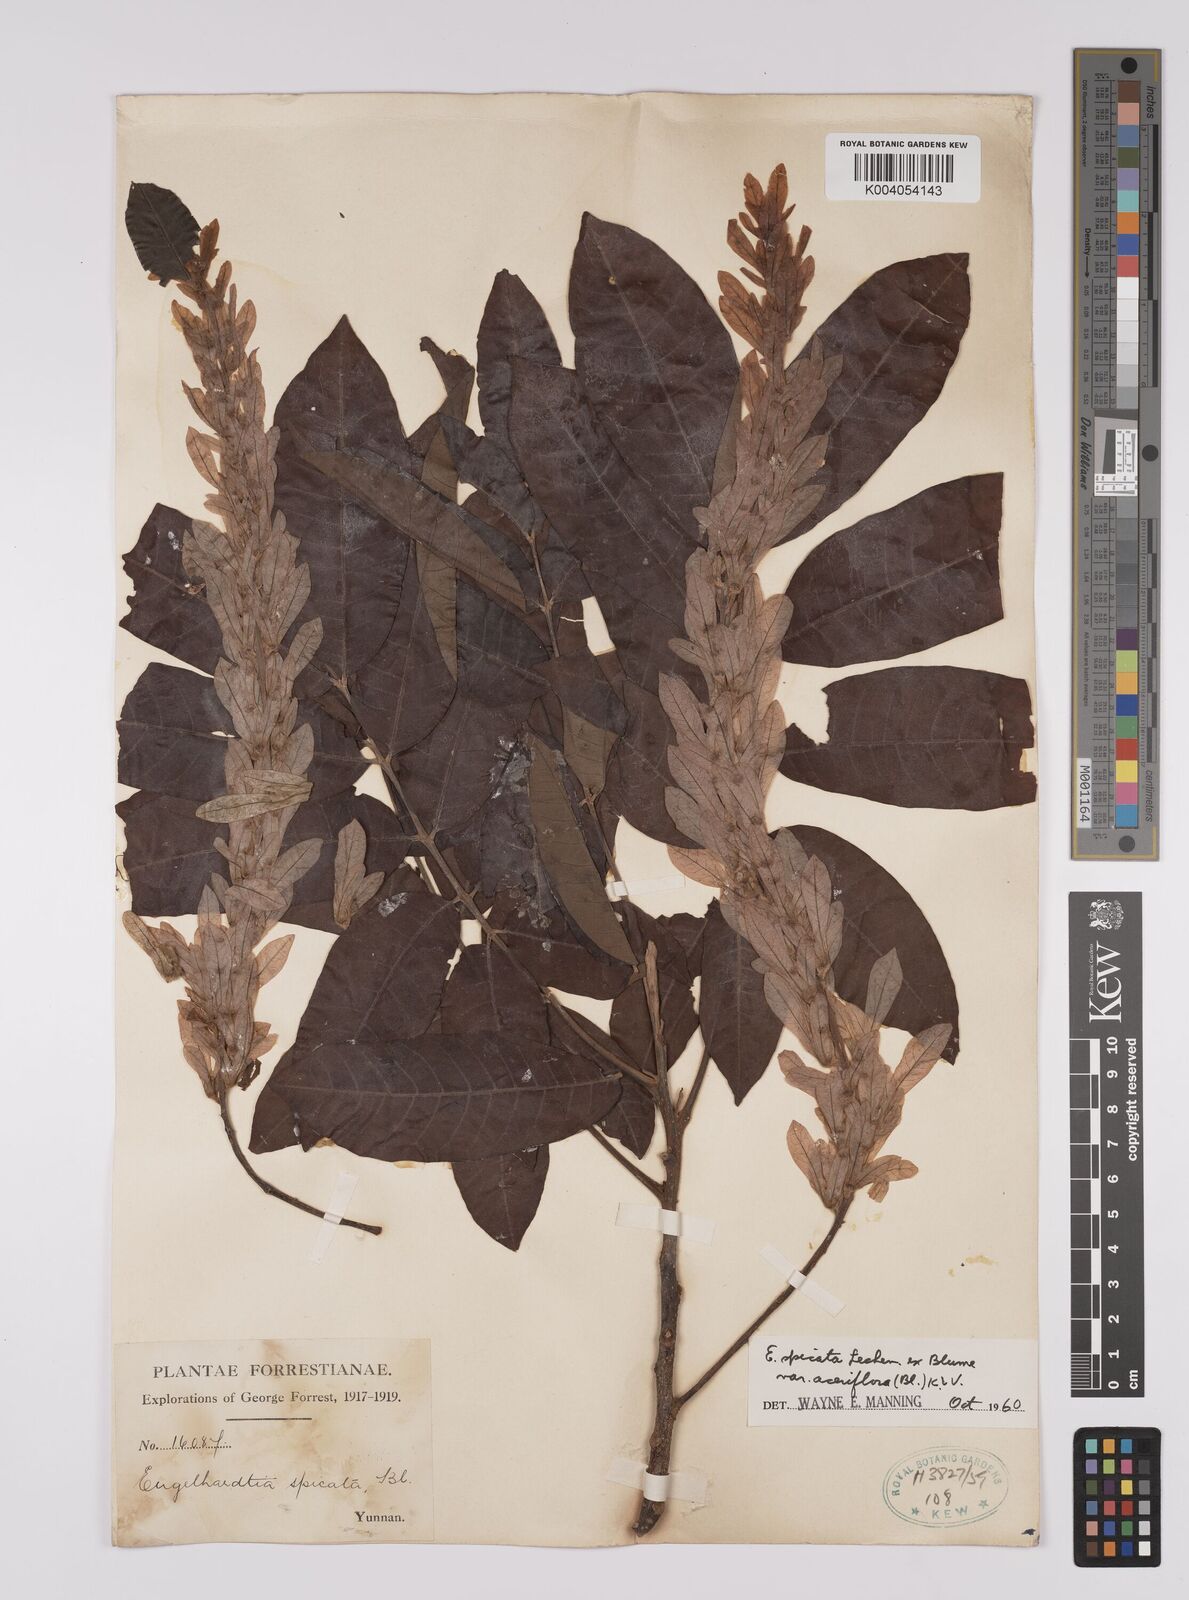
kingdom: Plantae
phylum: Tracheophyta
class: Magnoliopsida
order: Fagales
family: Juglandaceae
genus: Engelhardia
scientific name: Engelhardia spicata
